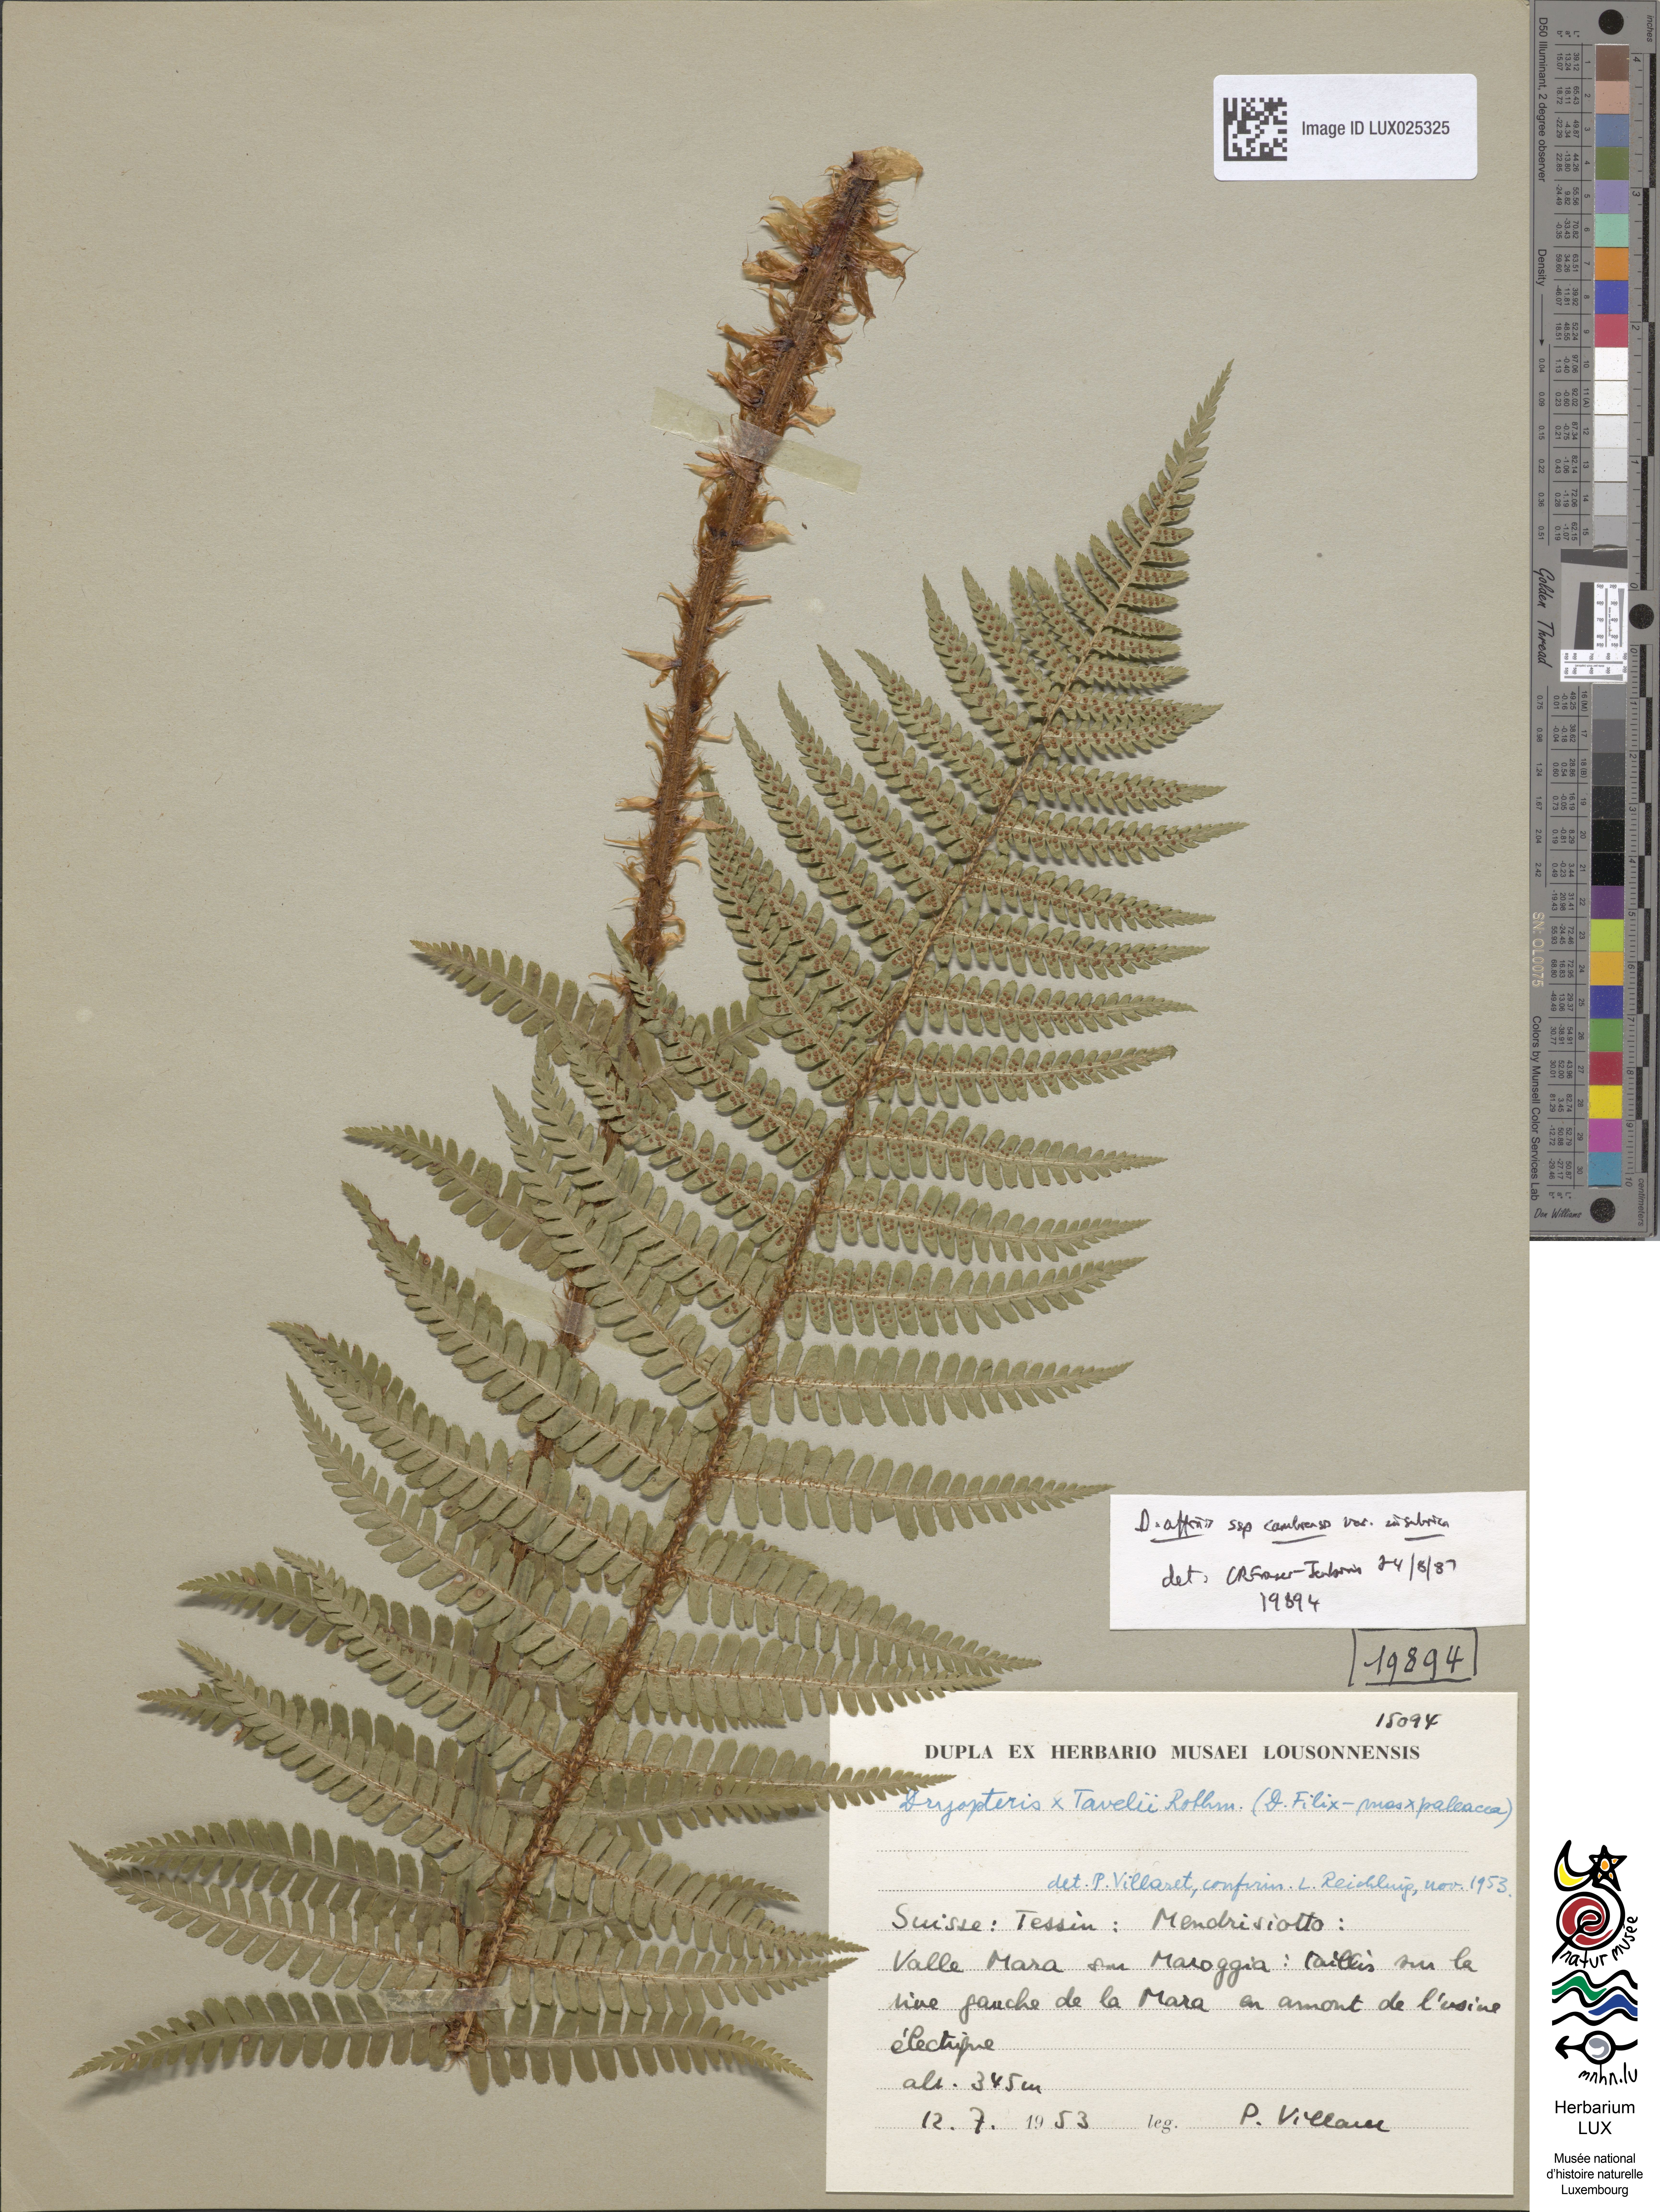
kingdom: Plantae
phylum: Tracheophyta
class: Polypodiopsida
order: Polypodiales
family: Dryopteridaceae
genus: Dryopteris
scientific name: Dryopteris cambrensis
